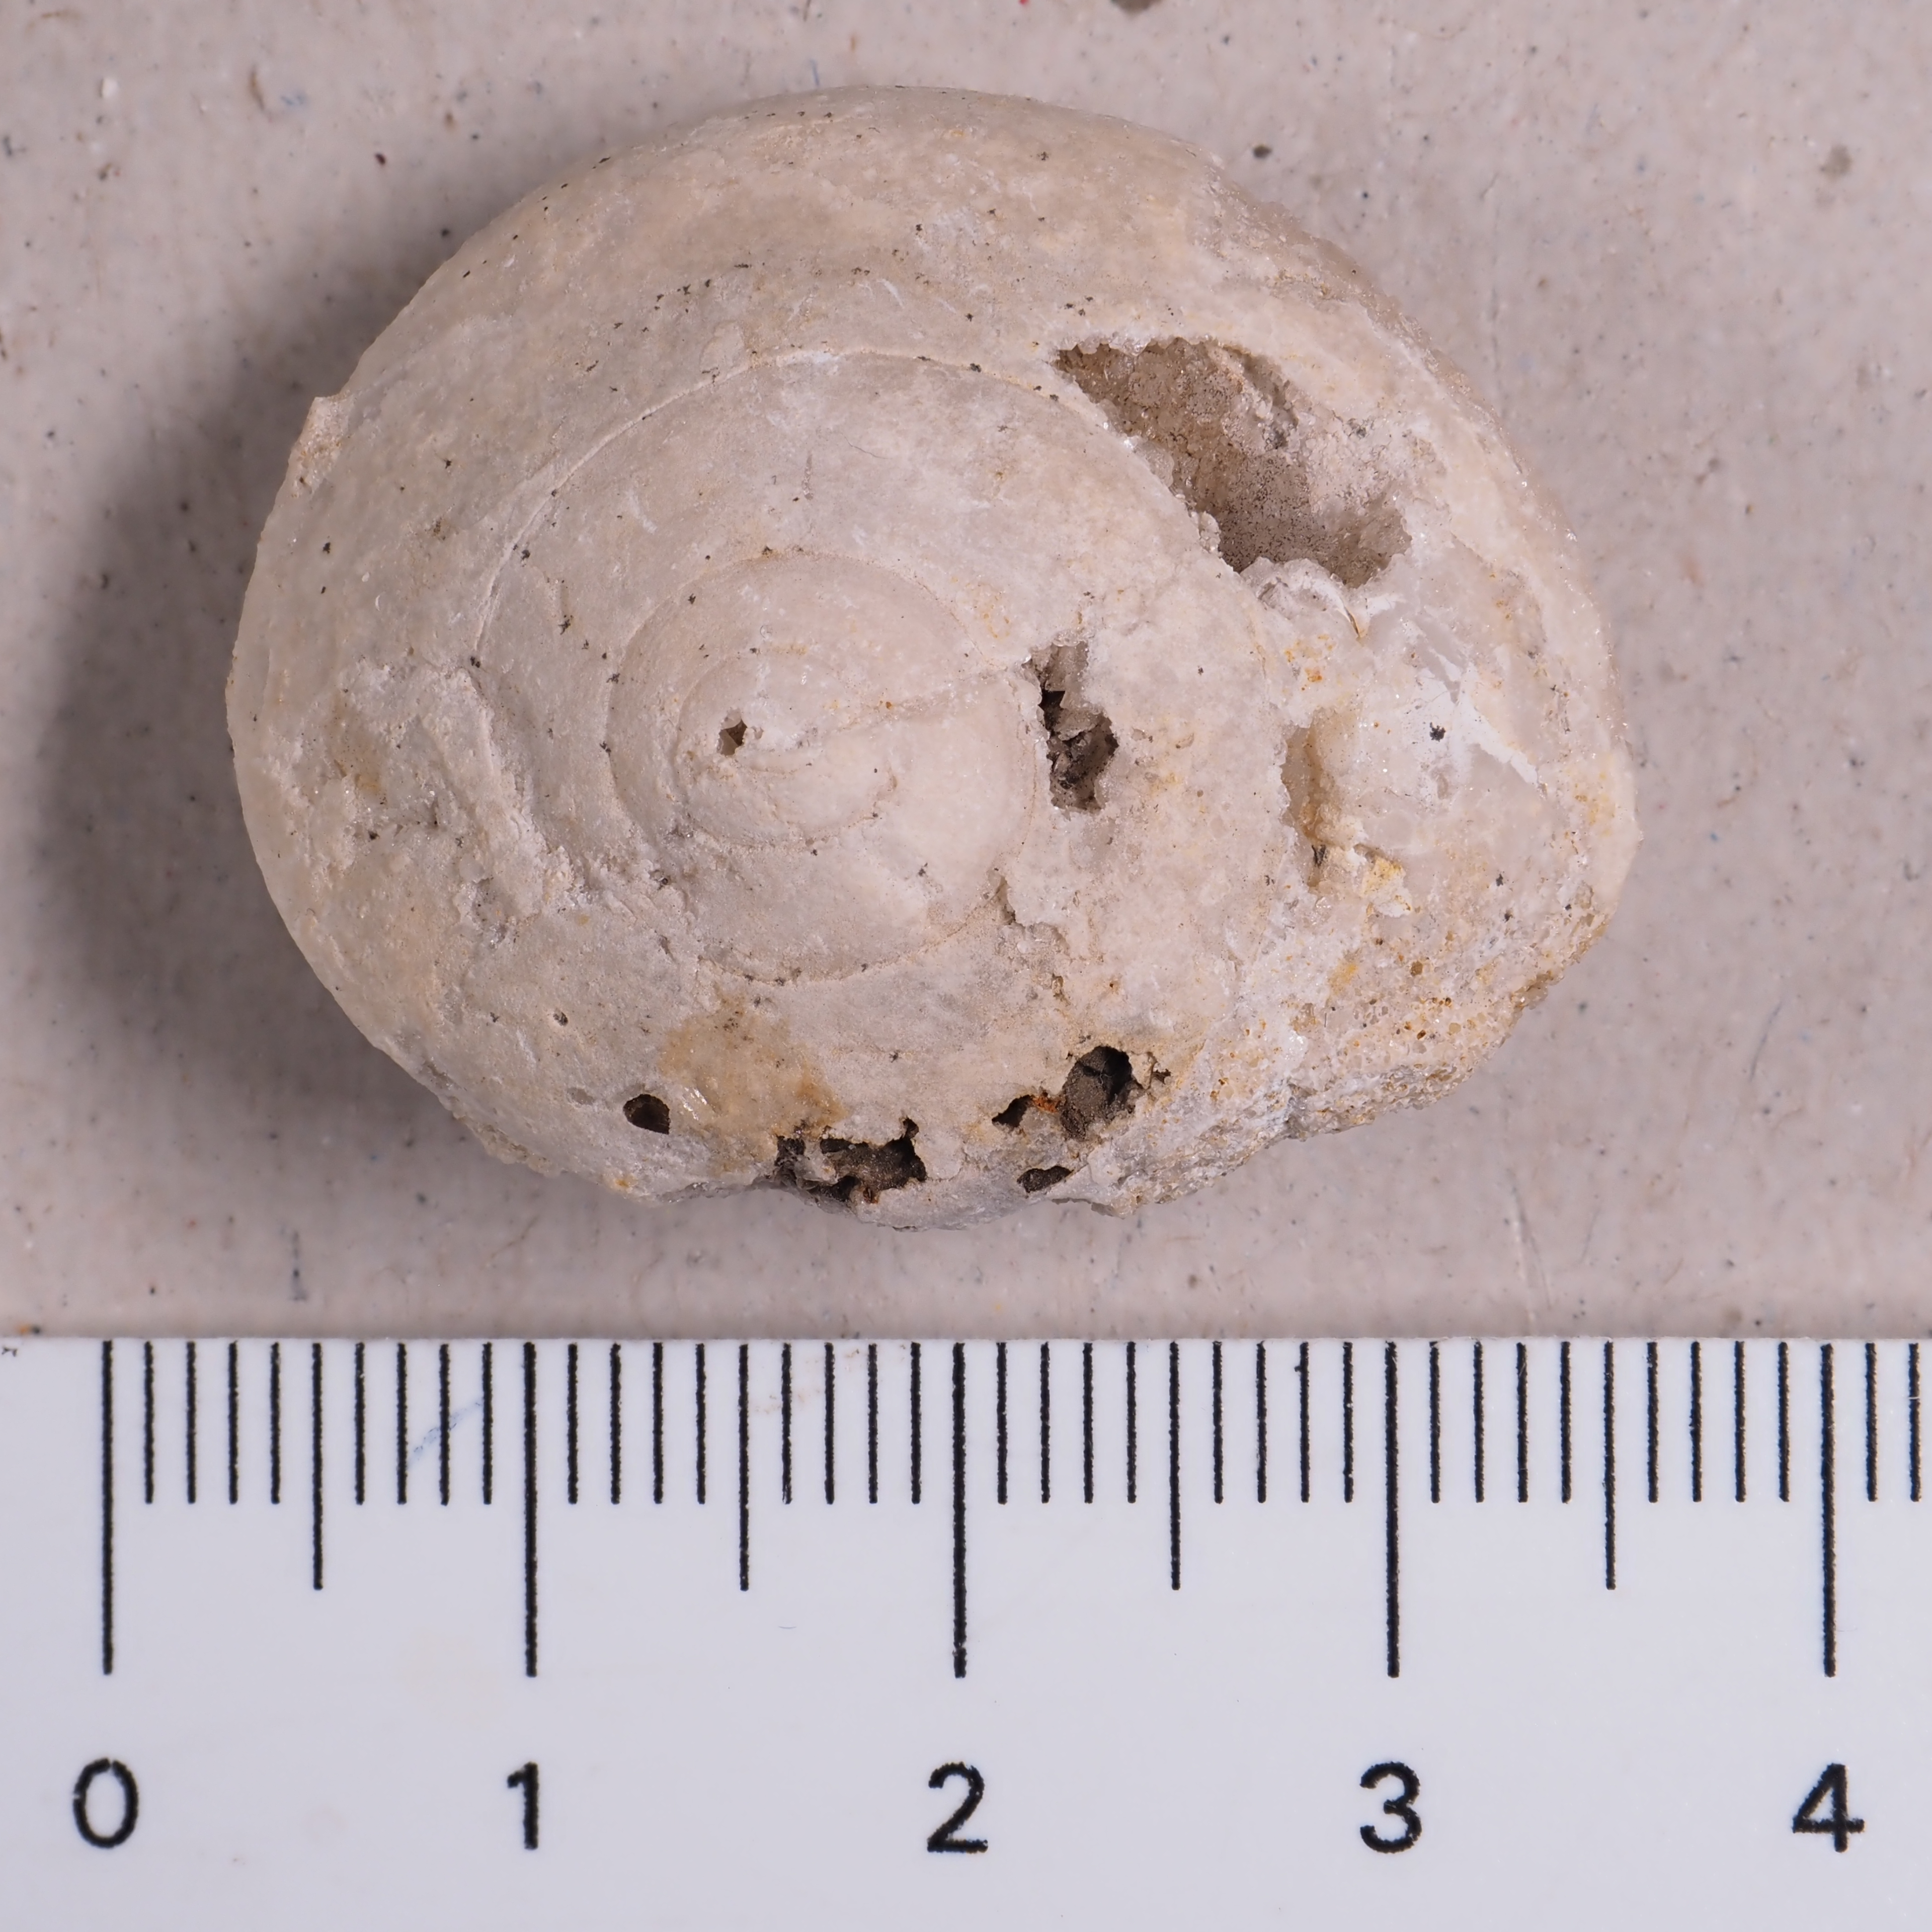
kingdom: Animalia
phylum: Mollusca
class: Gastropoda
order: Pleurotomariida
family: Ptychomphalidae
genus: Ptychomphalus
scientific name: Ptychomphalus
